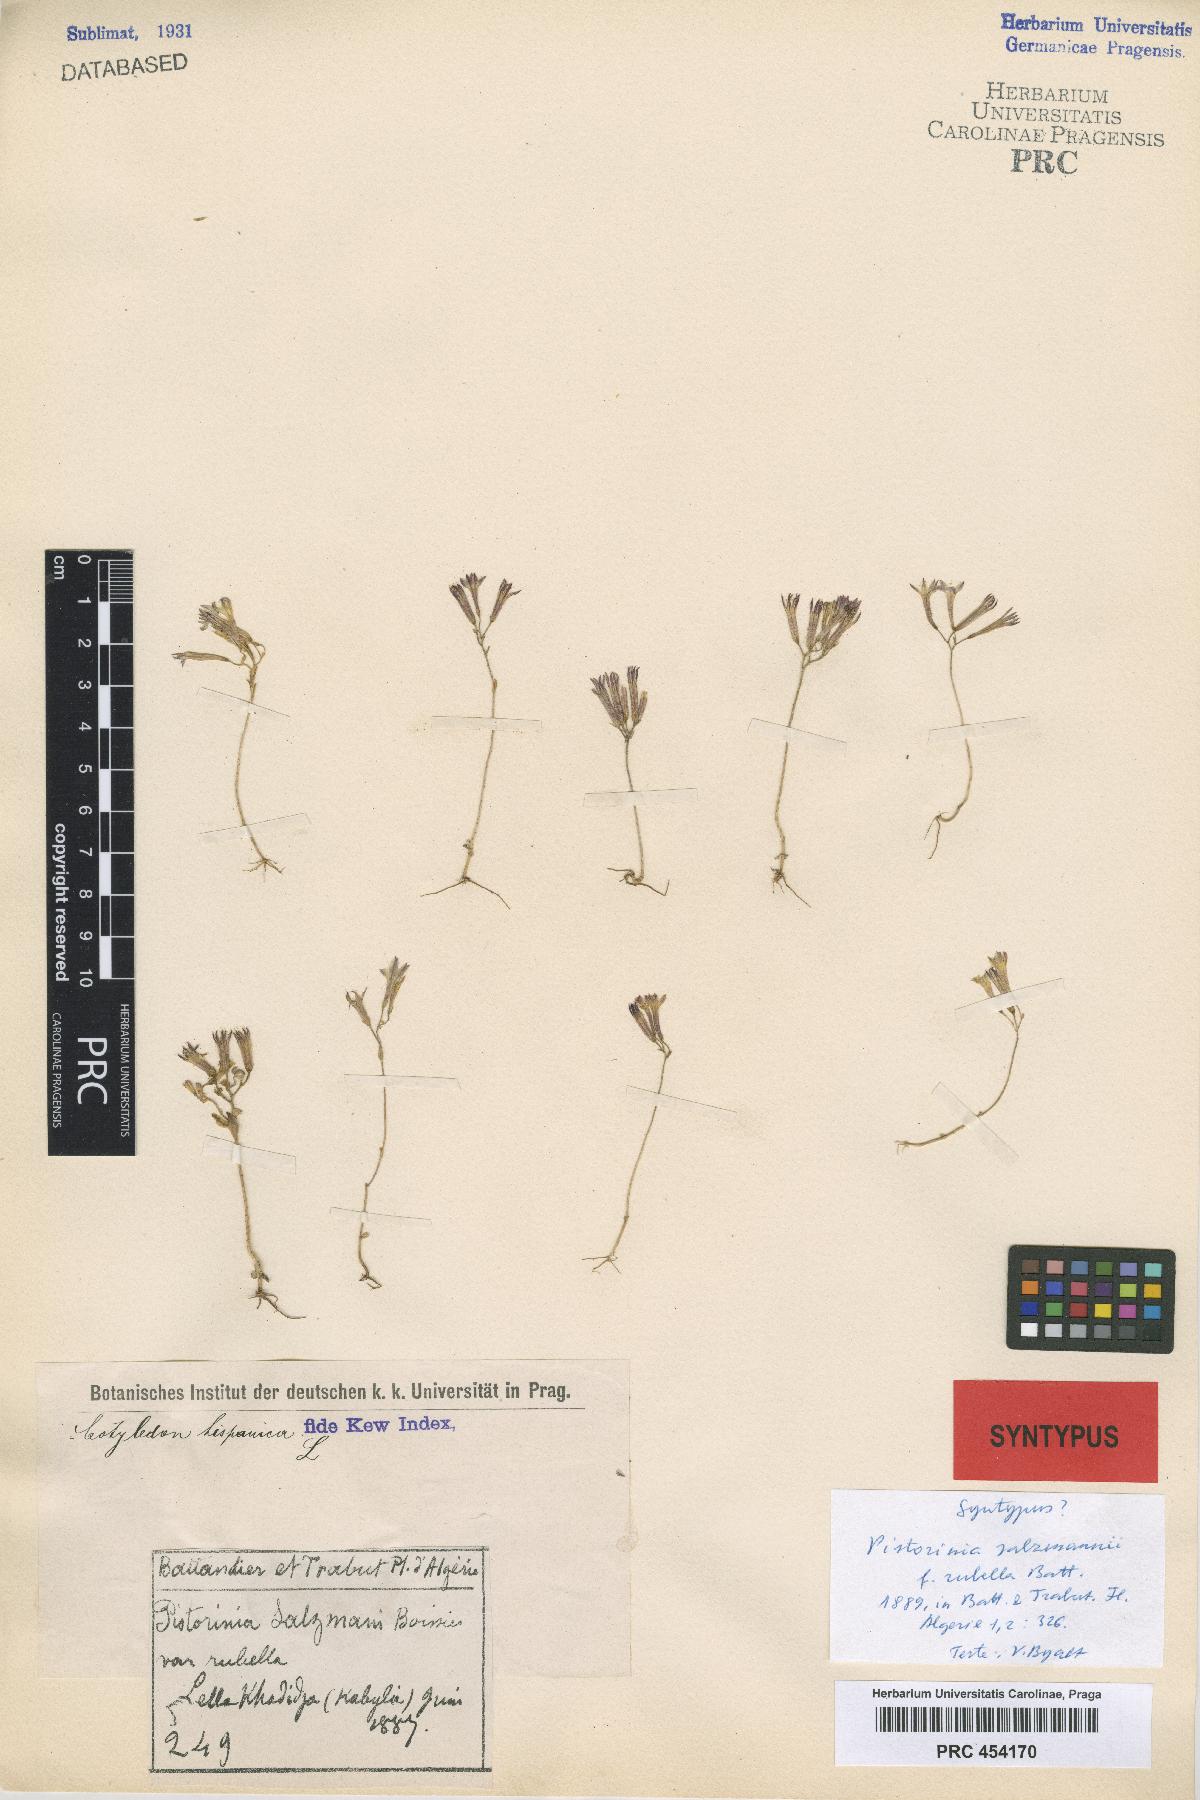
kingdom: Plantae
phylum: Tracheophyta
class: Magnoliopsida
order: Saxifragales
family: Crassulaceae
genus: Pistorinia
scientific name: Pistorinia breviflora
